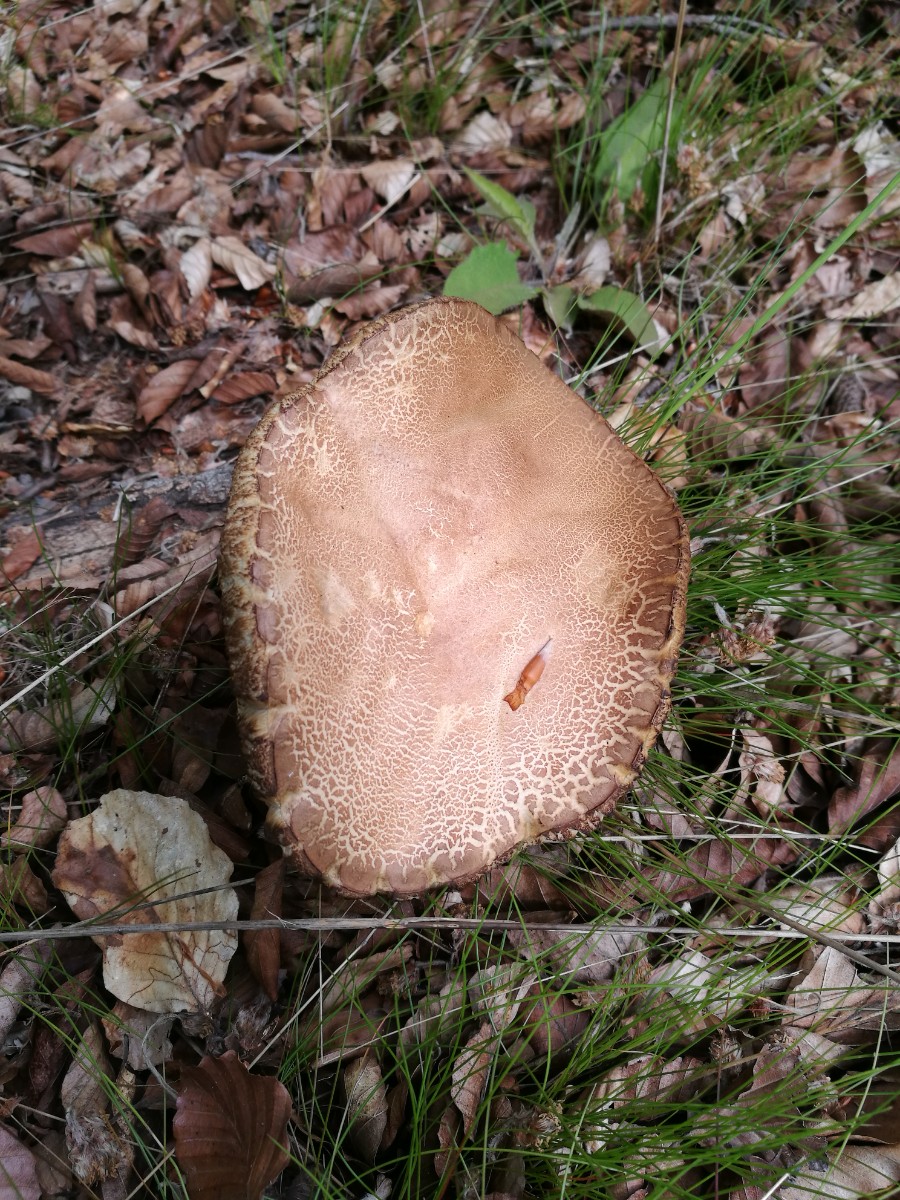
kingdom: Fungi
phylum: Basidiomycota
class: Agaricomycetes
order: Boletales
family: Boletaceae
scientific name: Boletaceae
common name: rørhatfamilien
